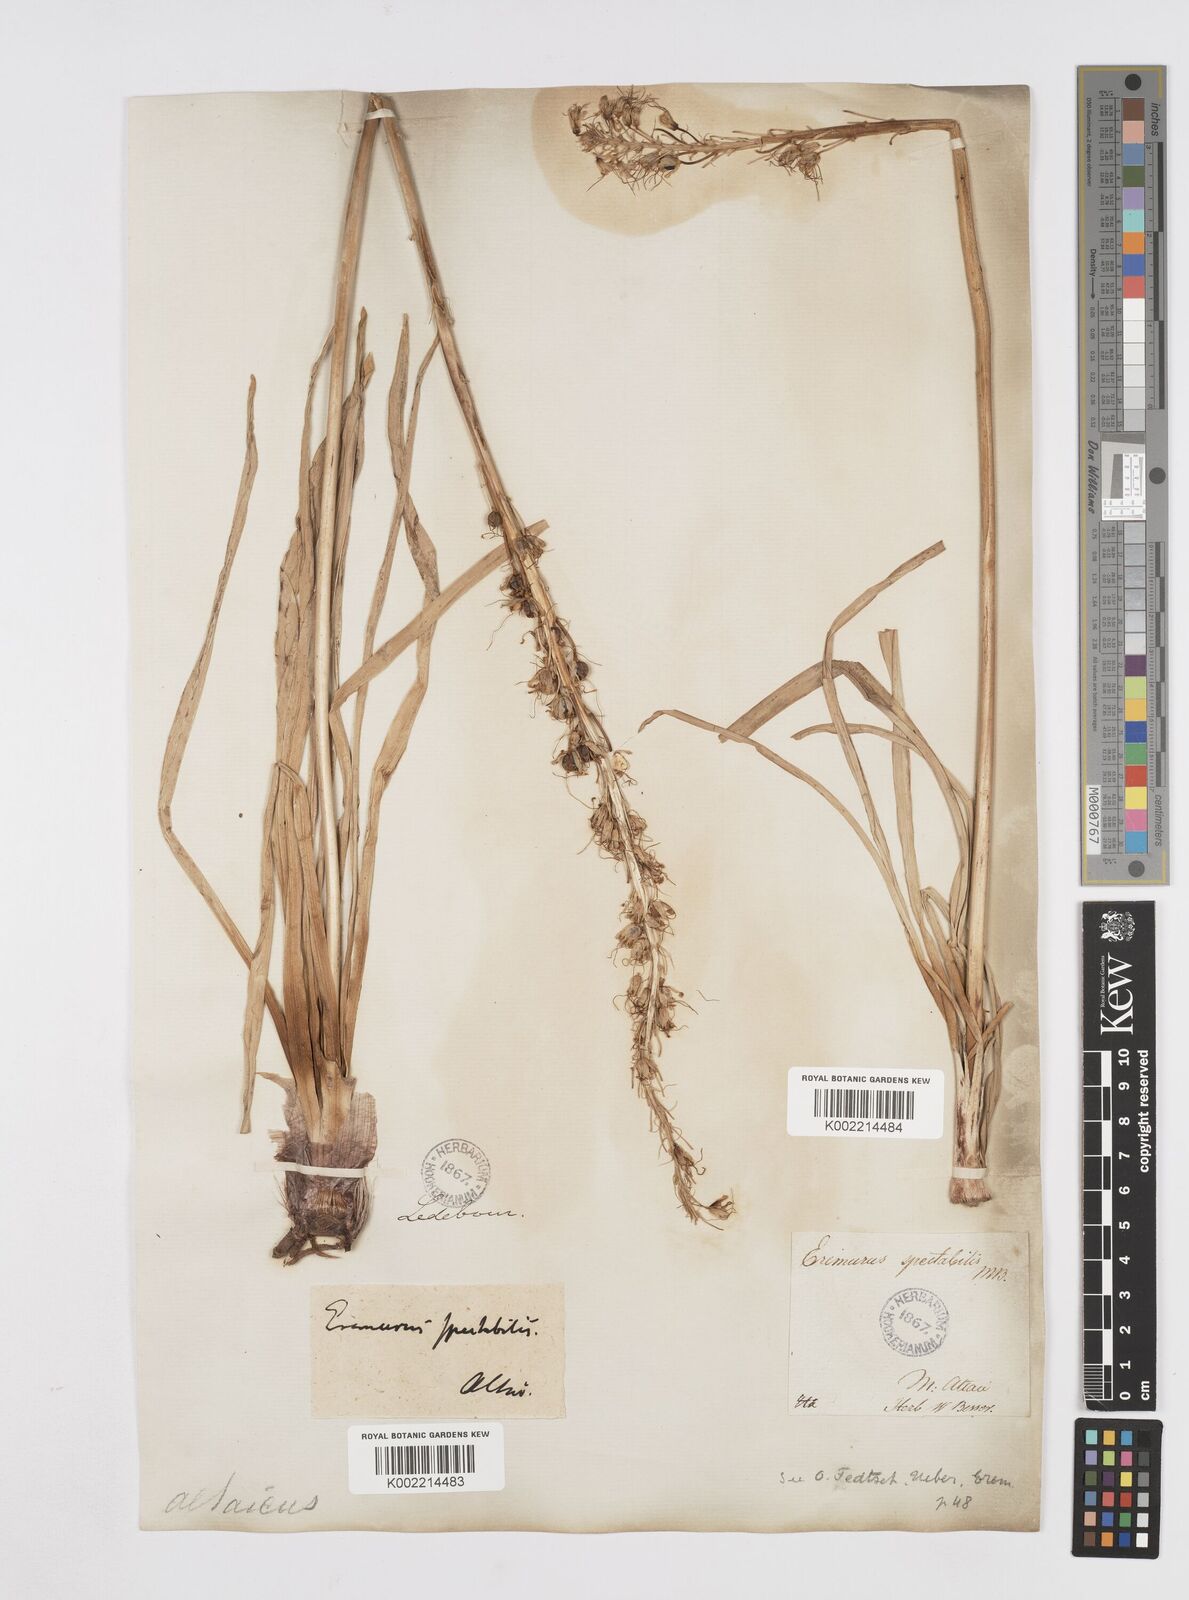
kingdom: Plantae
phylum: Tracheophyta
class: Liliopsida
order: Asparagales
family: Asphodelaceae
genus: Eremurus
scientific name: Eremurus altaicus
